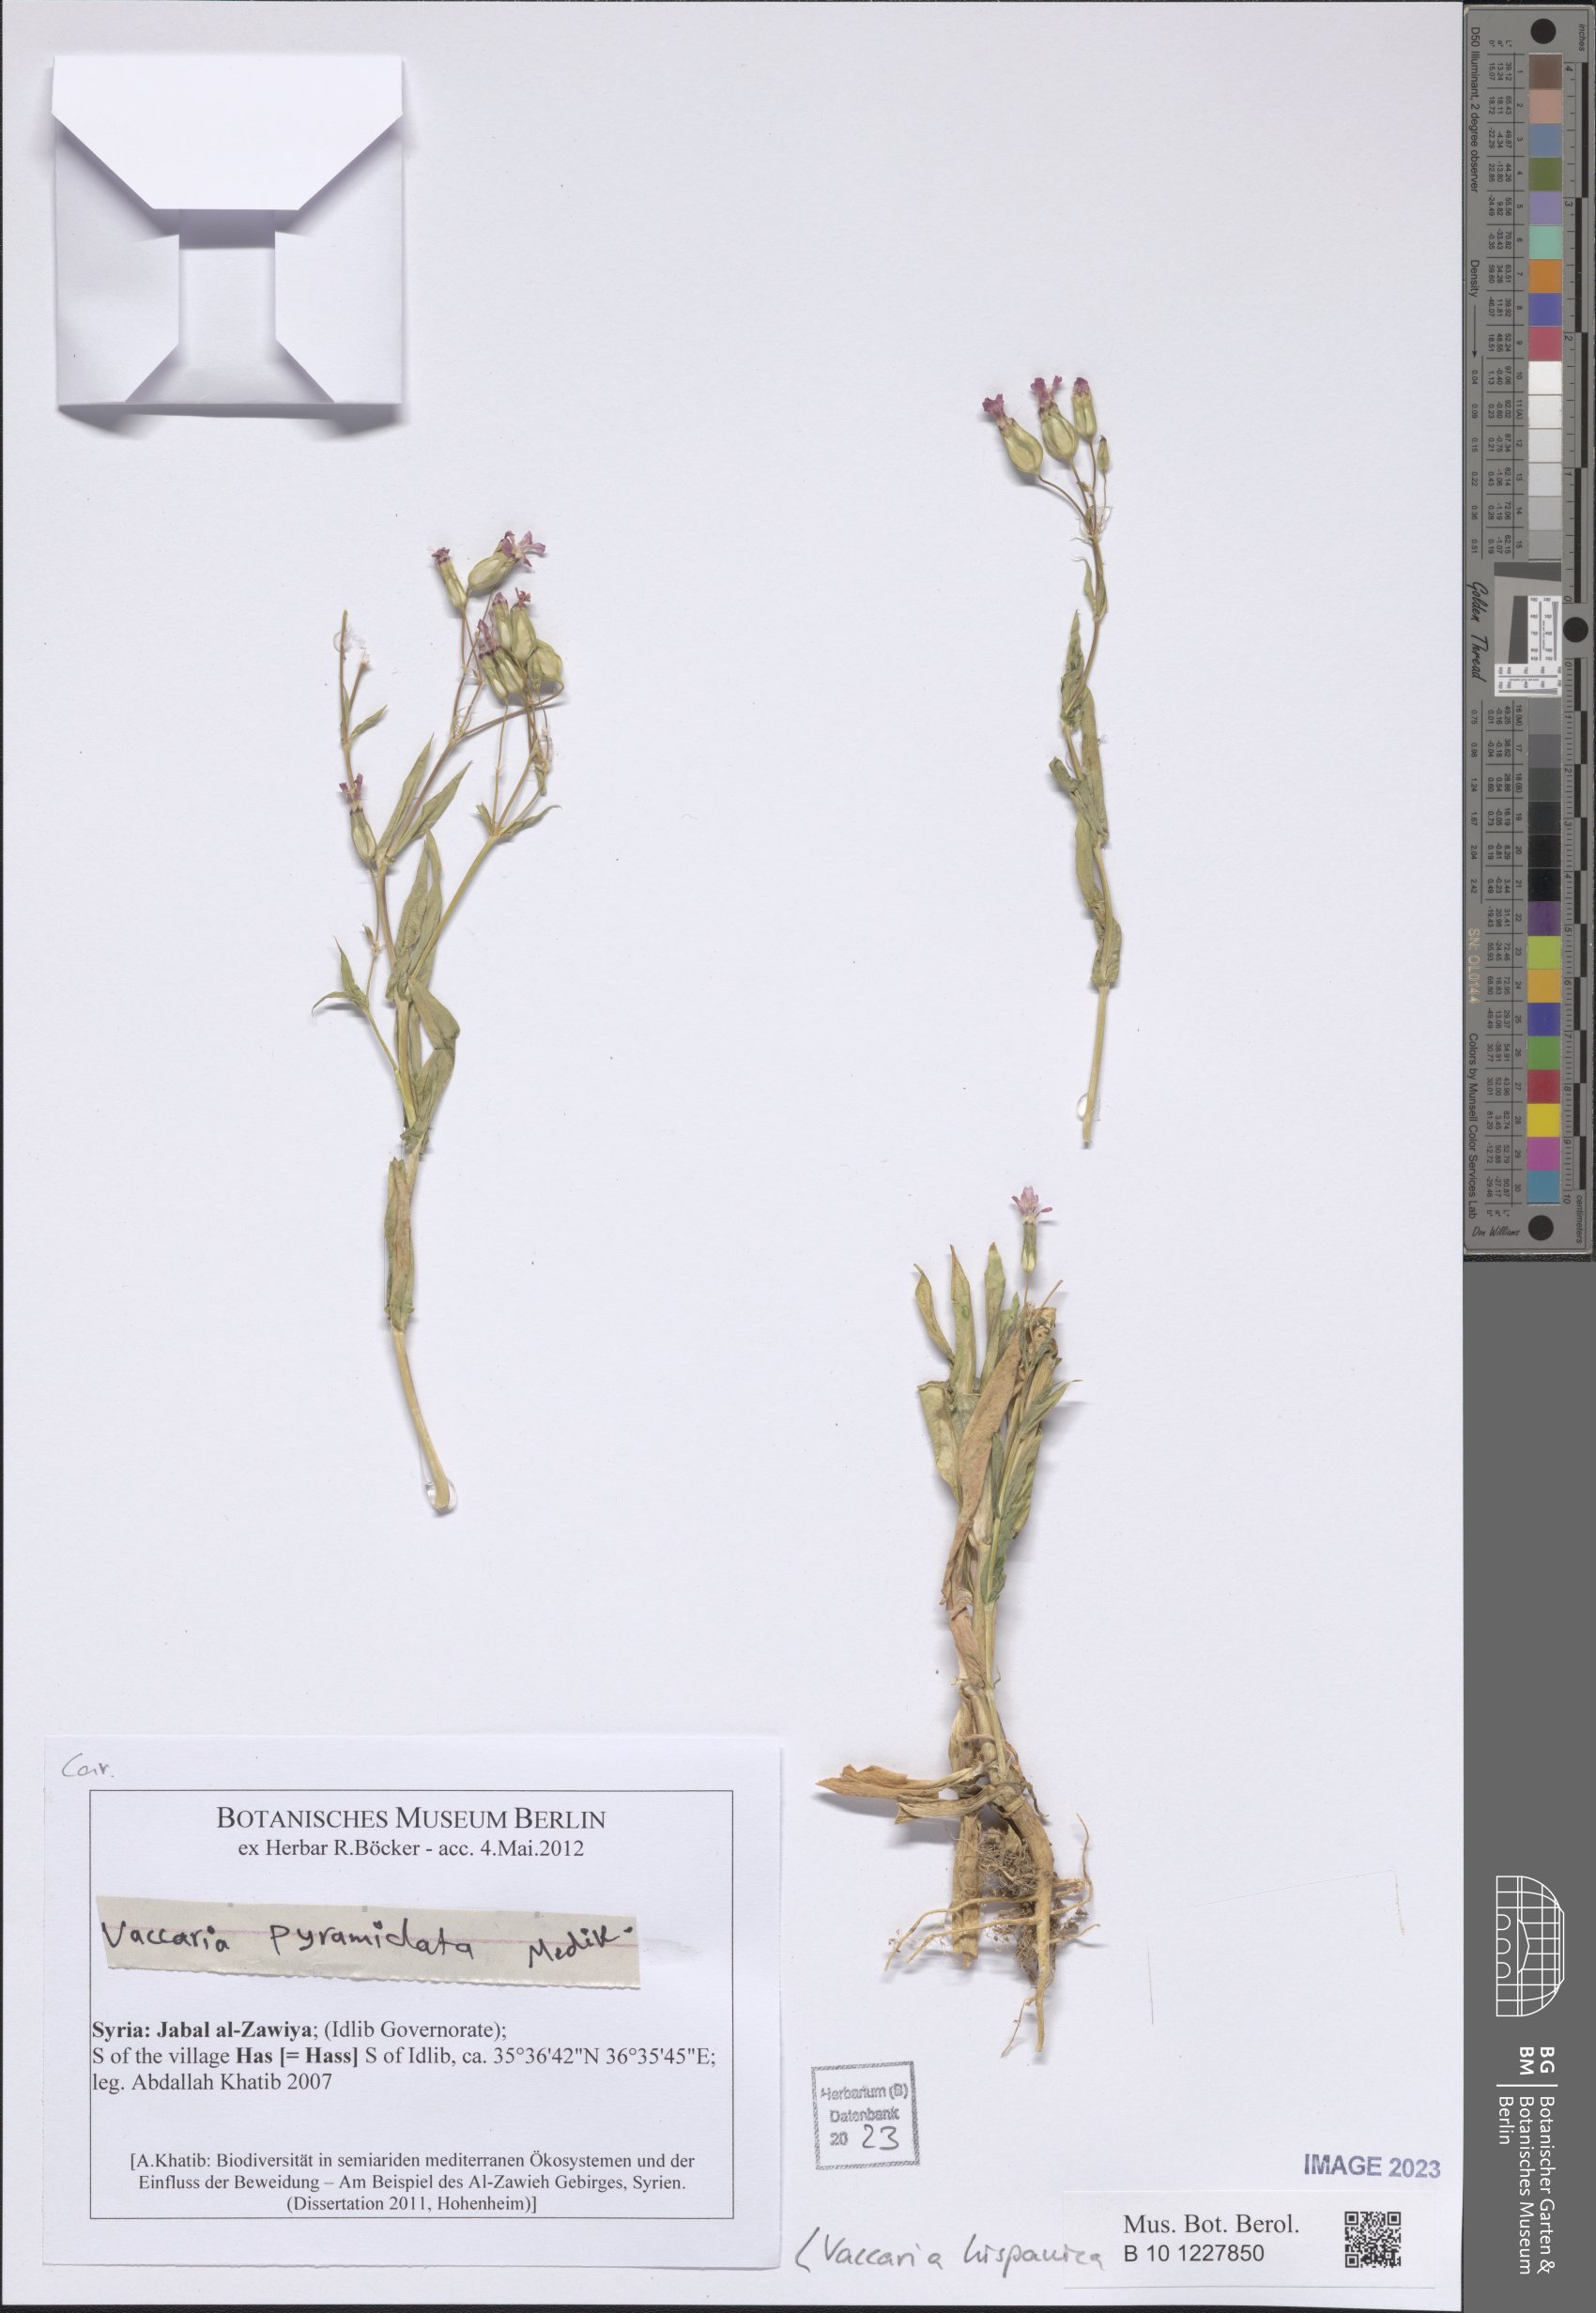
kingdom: Plantae
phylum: Tracheophyta
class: Magnoliopsida
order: Caryophyllales
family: Caryophyllaceae
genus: Gypsophila
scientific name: Gypsophila vaccaria
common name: Cow soapwort
